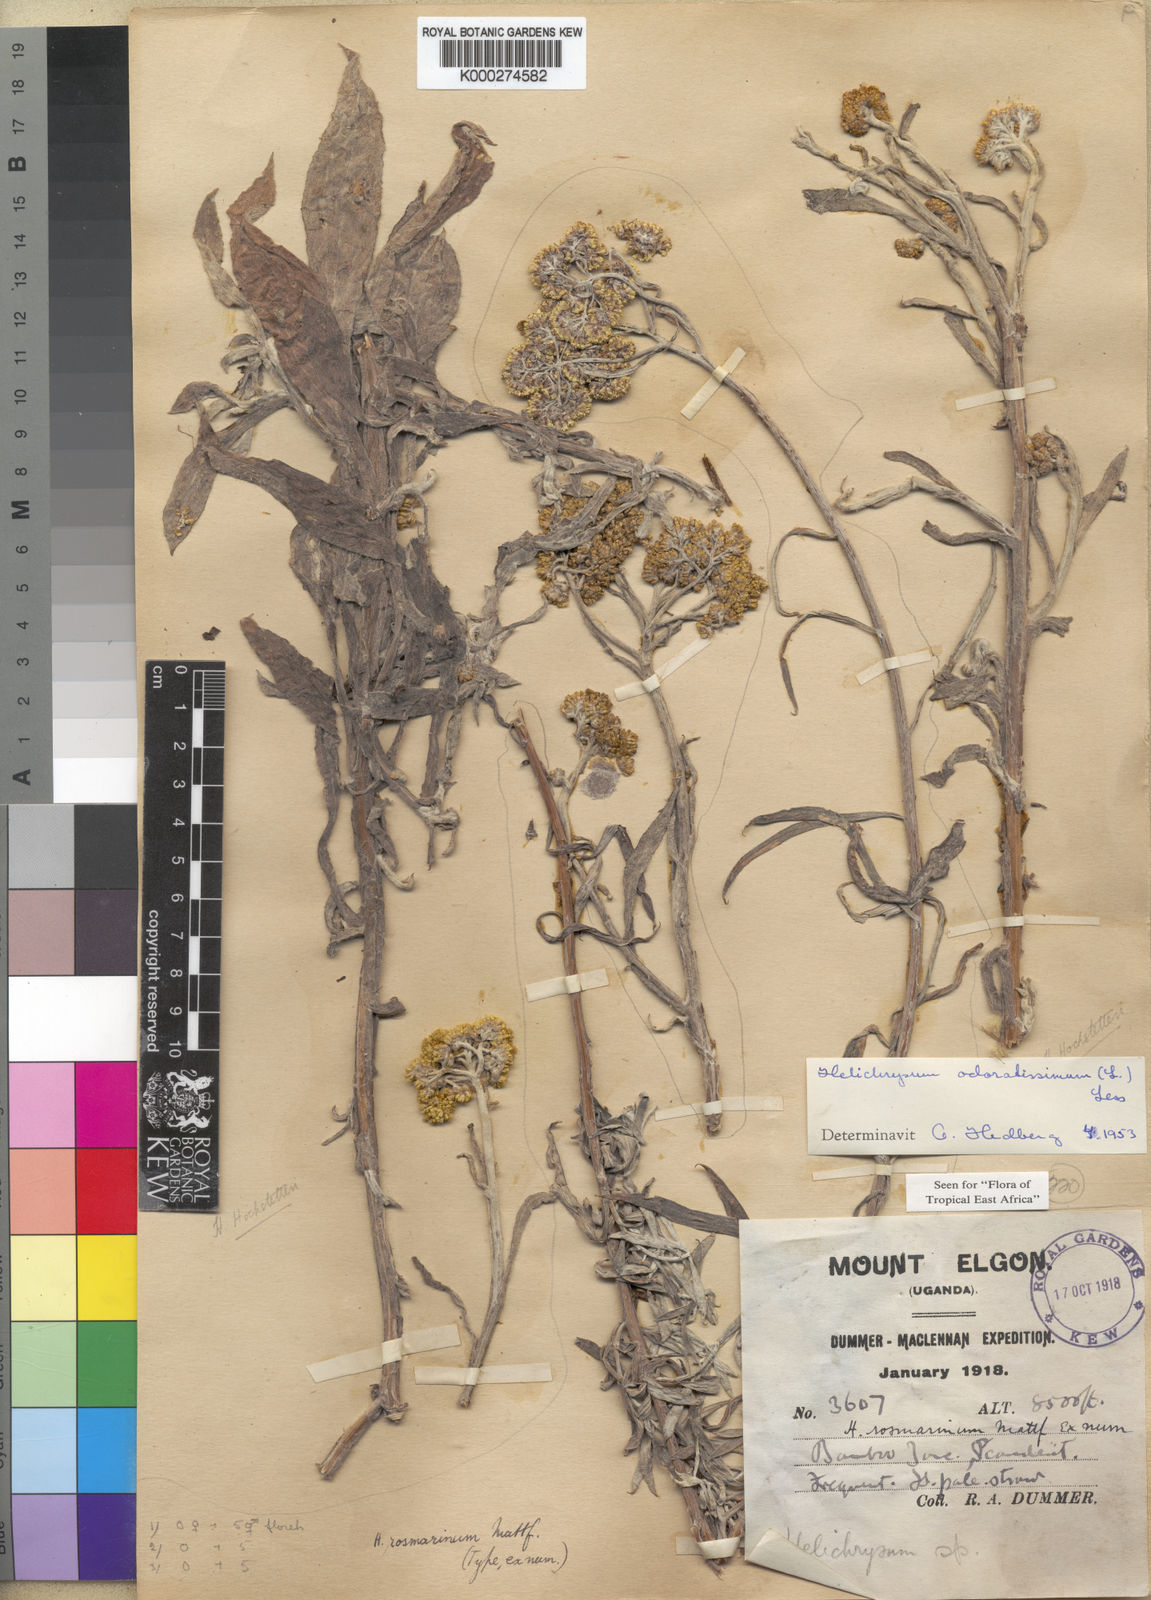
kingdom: Plantae
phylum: Tracheophyta
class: Magnoliopsida
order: Asterales
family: Asteraceae
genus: Helichrysum
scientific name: Helichrysum
